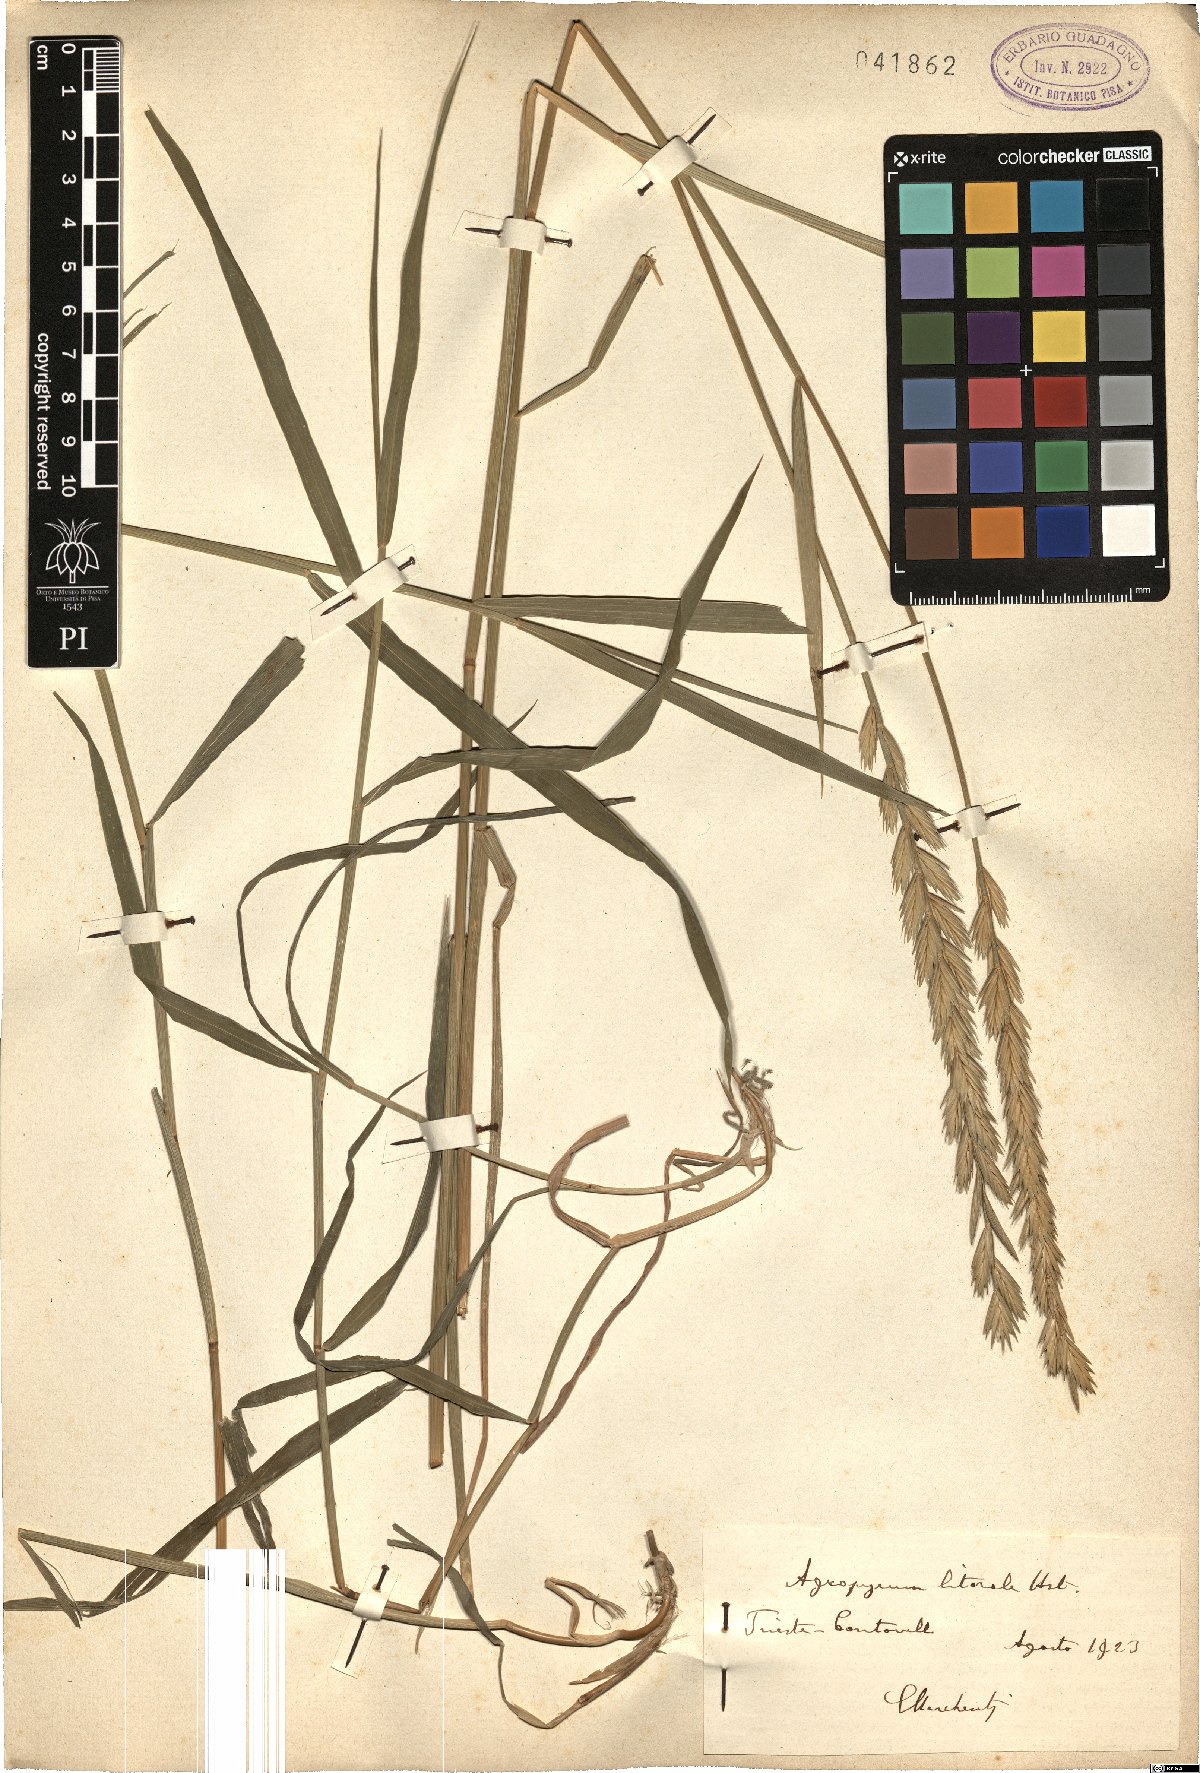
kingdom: Plantae
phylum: Tracheophyta
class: Liliopsida
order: Poales
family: Poaceae
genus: Elymus
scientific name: Elymus athericus
